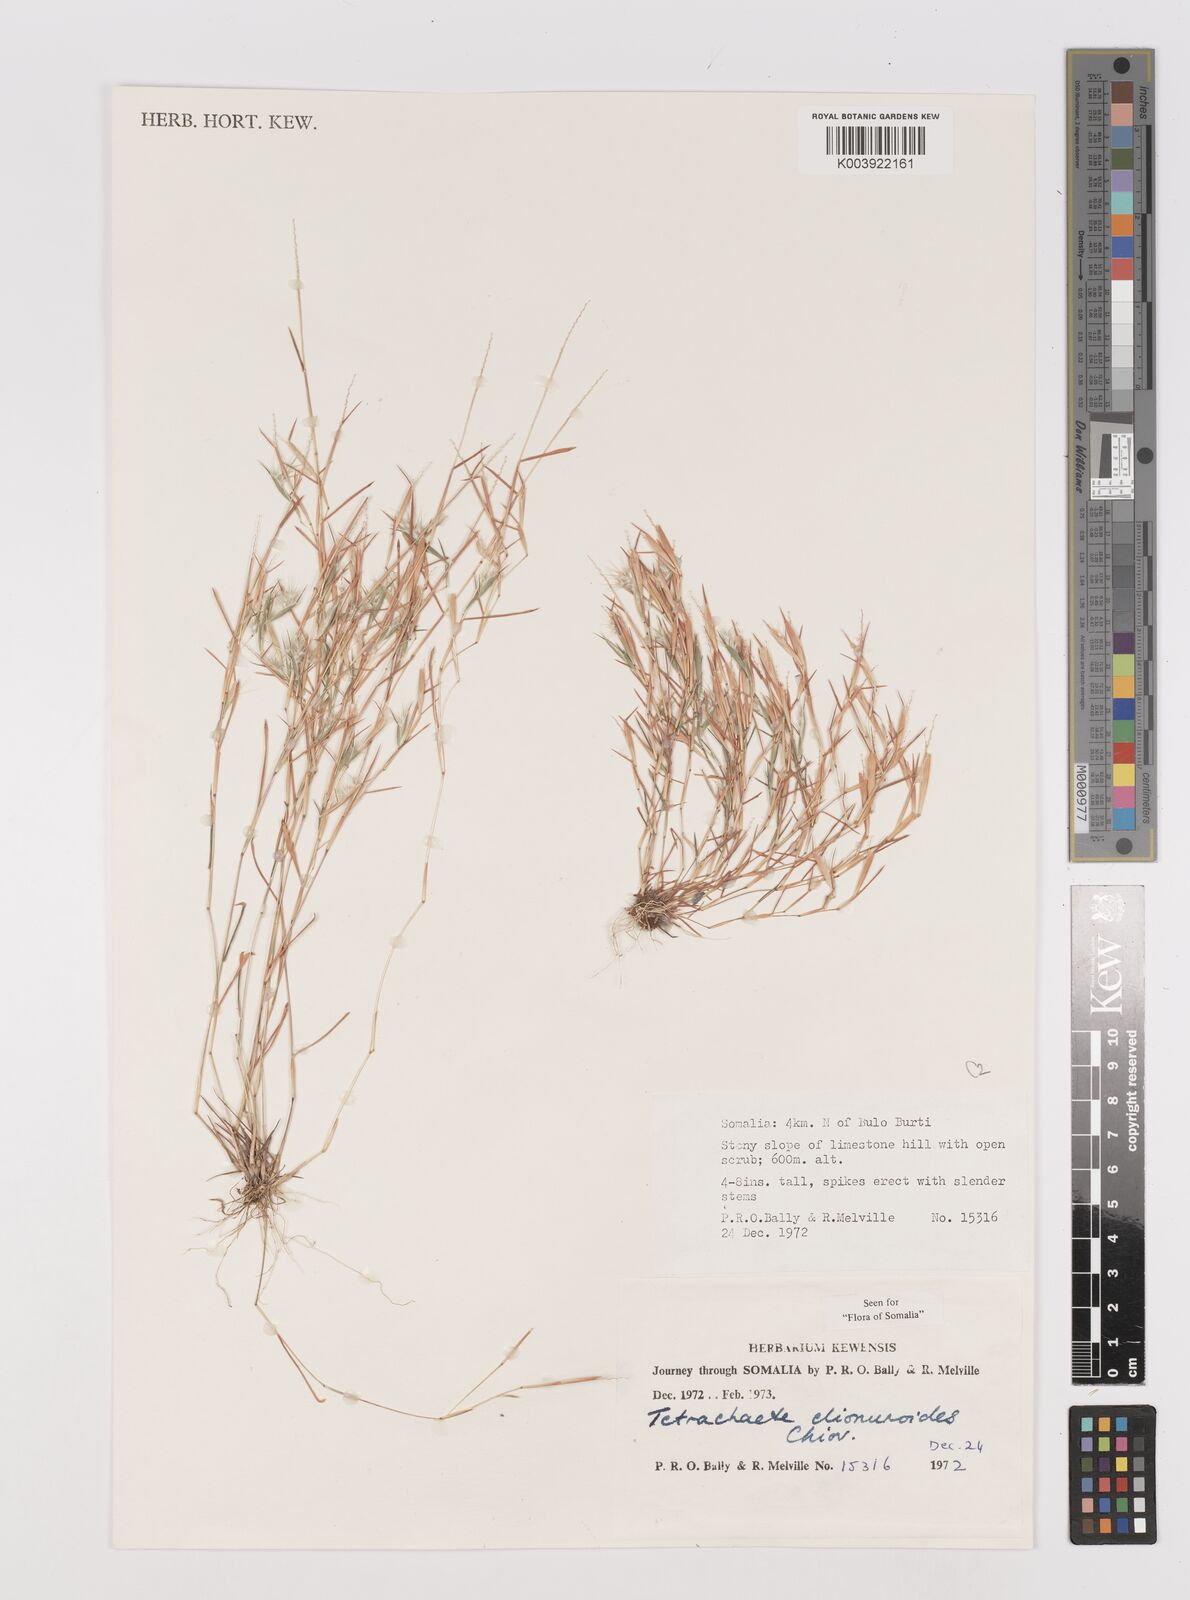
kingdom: Plantae
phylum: Tracheophyta
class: Liliopsida
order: Poales
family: Poaceae
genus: Tetrachaete
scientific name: Tetrachaete elionuroides
